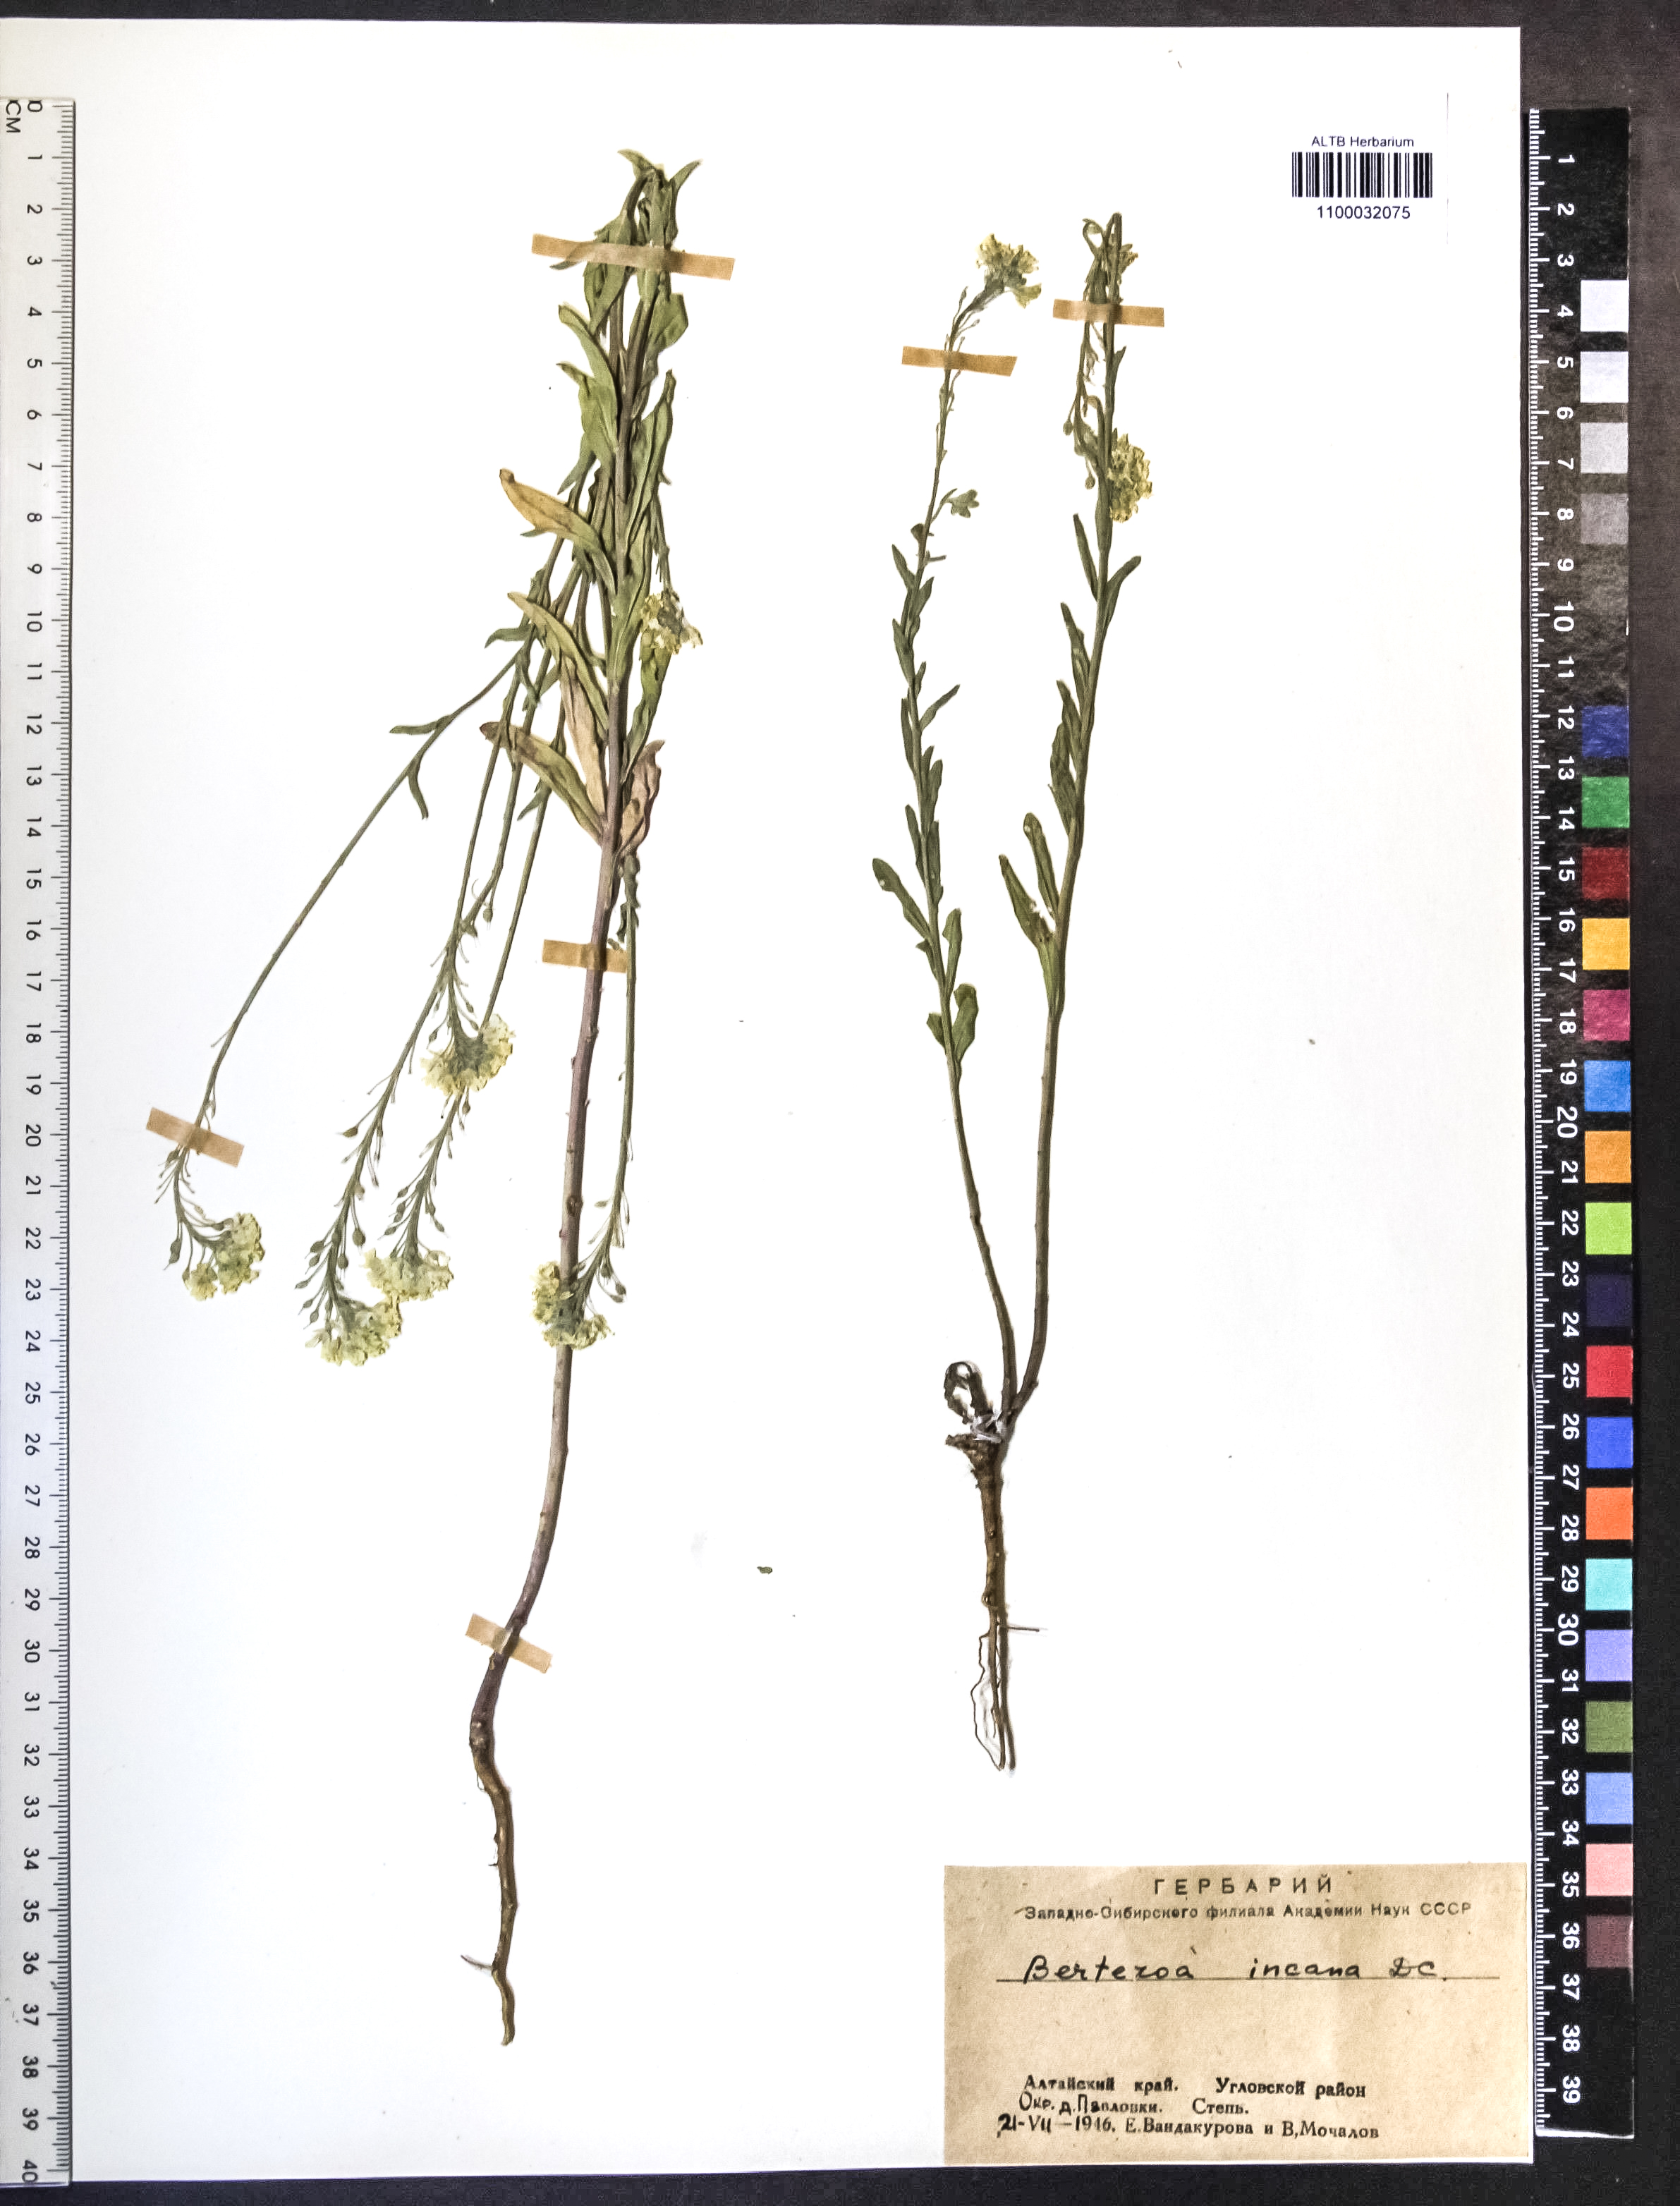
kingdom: Plantae
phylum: Tracheophyta
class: Magnoliopsida
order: Brassicales
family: Brassicaceae
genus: Berteroa
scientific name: Berteroa incana
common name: Hoary alison
